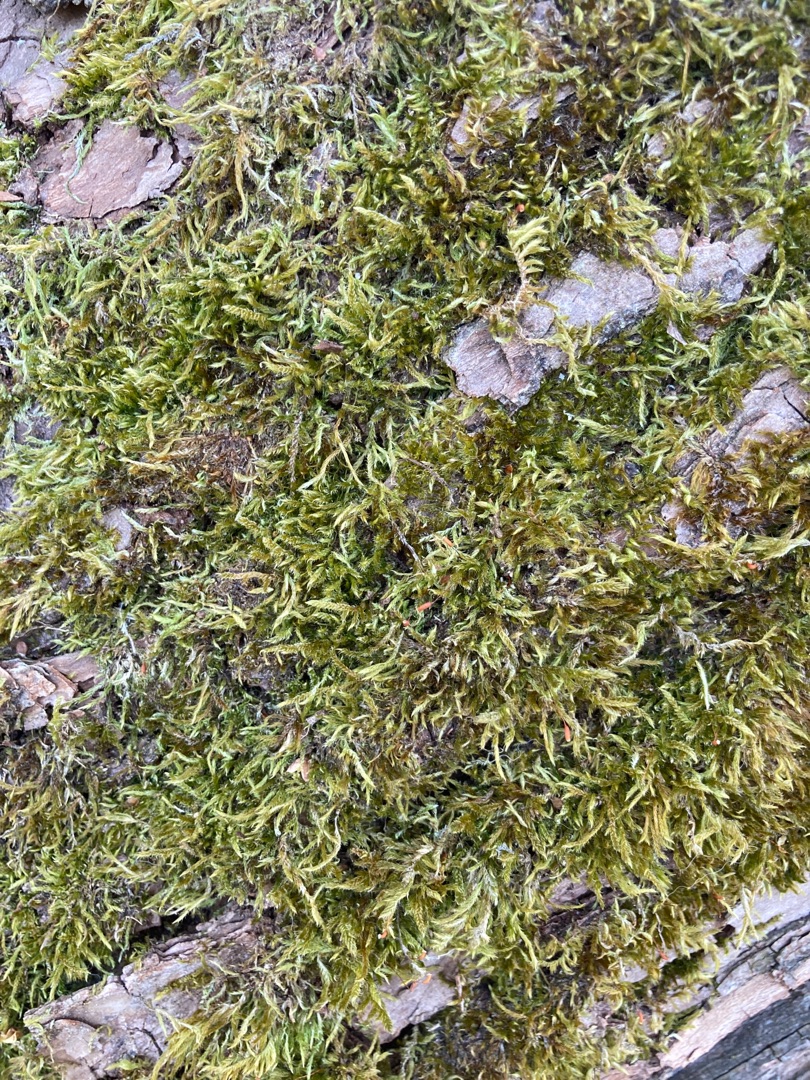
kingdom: Plantae
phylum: Bryophyta
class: Bryopsida
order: Hypnales
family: Hypnaceae
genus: Hypnum
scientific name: Hypnum cupressiforme
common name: Almindelig cypresmos
